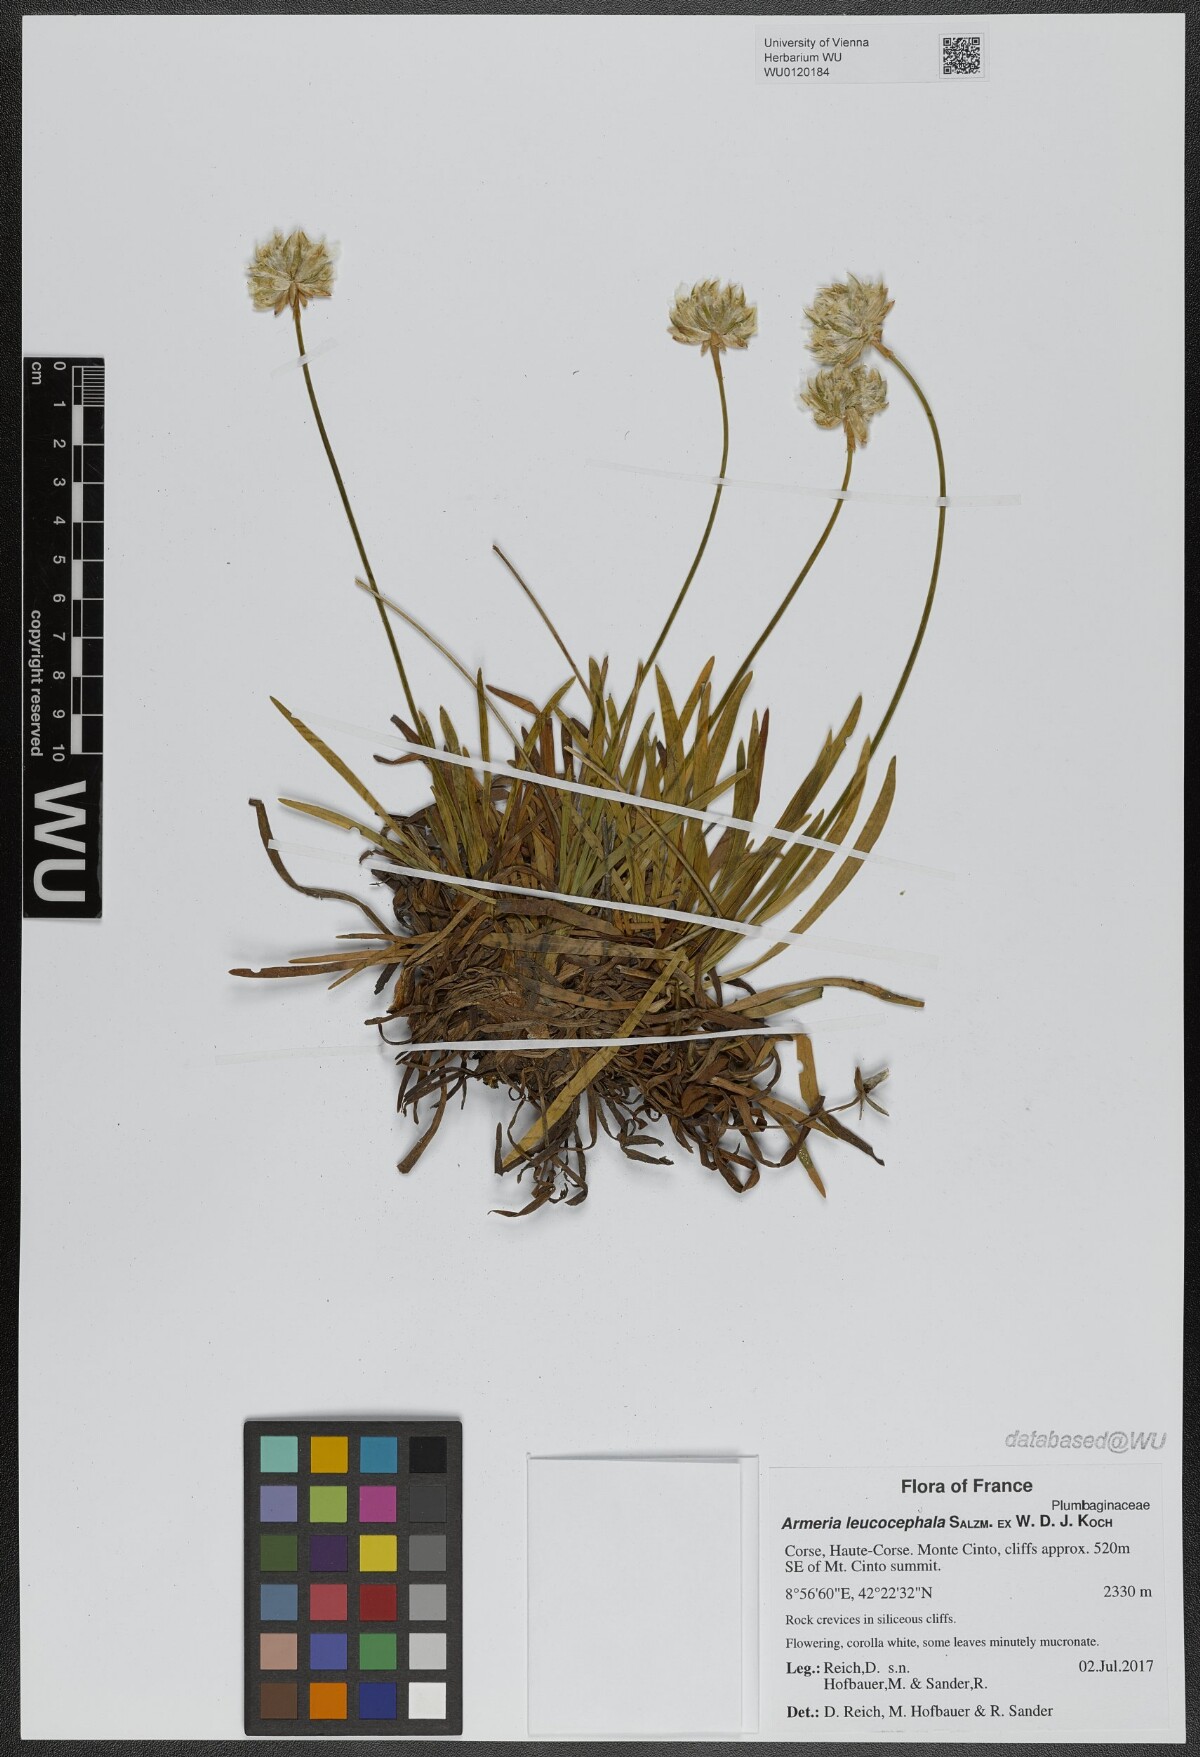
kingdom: Plantae
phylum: Tracheophyta
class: Magnoliopsida
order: Caryophyllales
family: Plumbaginaceae
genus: Armeria
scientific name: Armeria leucocephala
